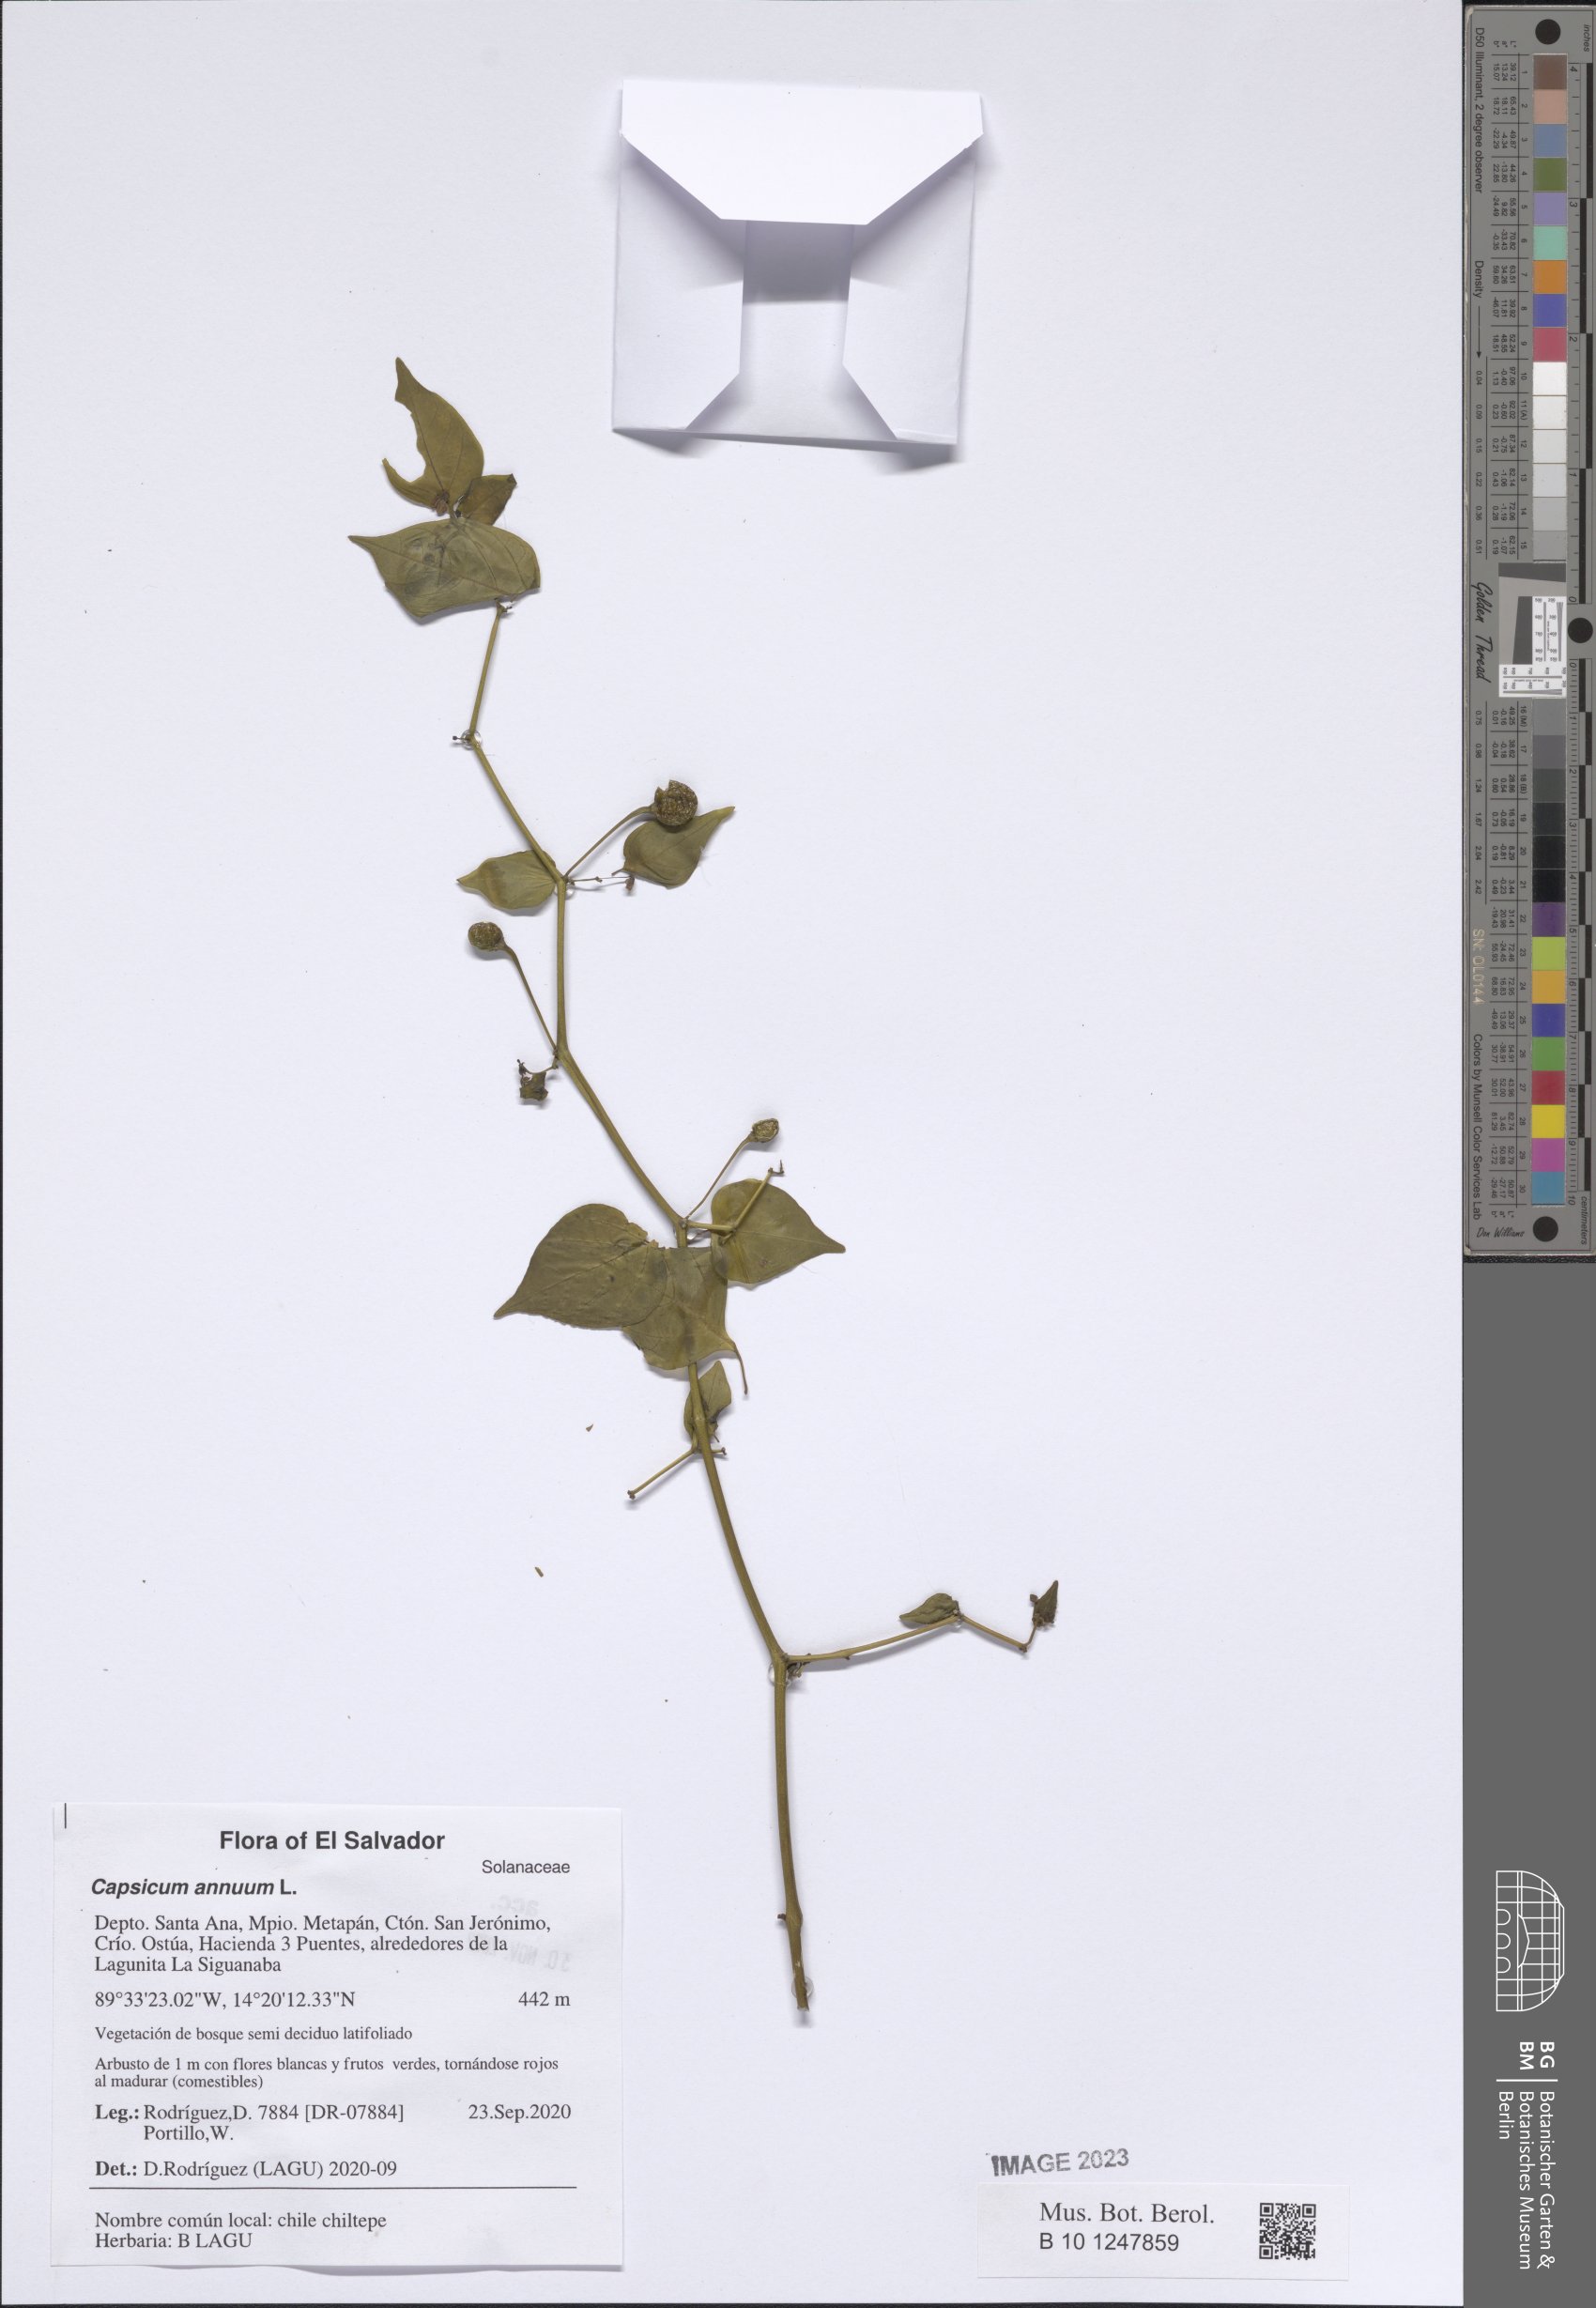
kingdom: Plantae
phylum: Tracheophyta
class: Magnoliopsida
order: Solanales
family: Solanaceae
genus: Capsicum
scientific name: Capsicum annuum
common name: Sweet pepper
